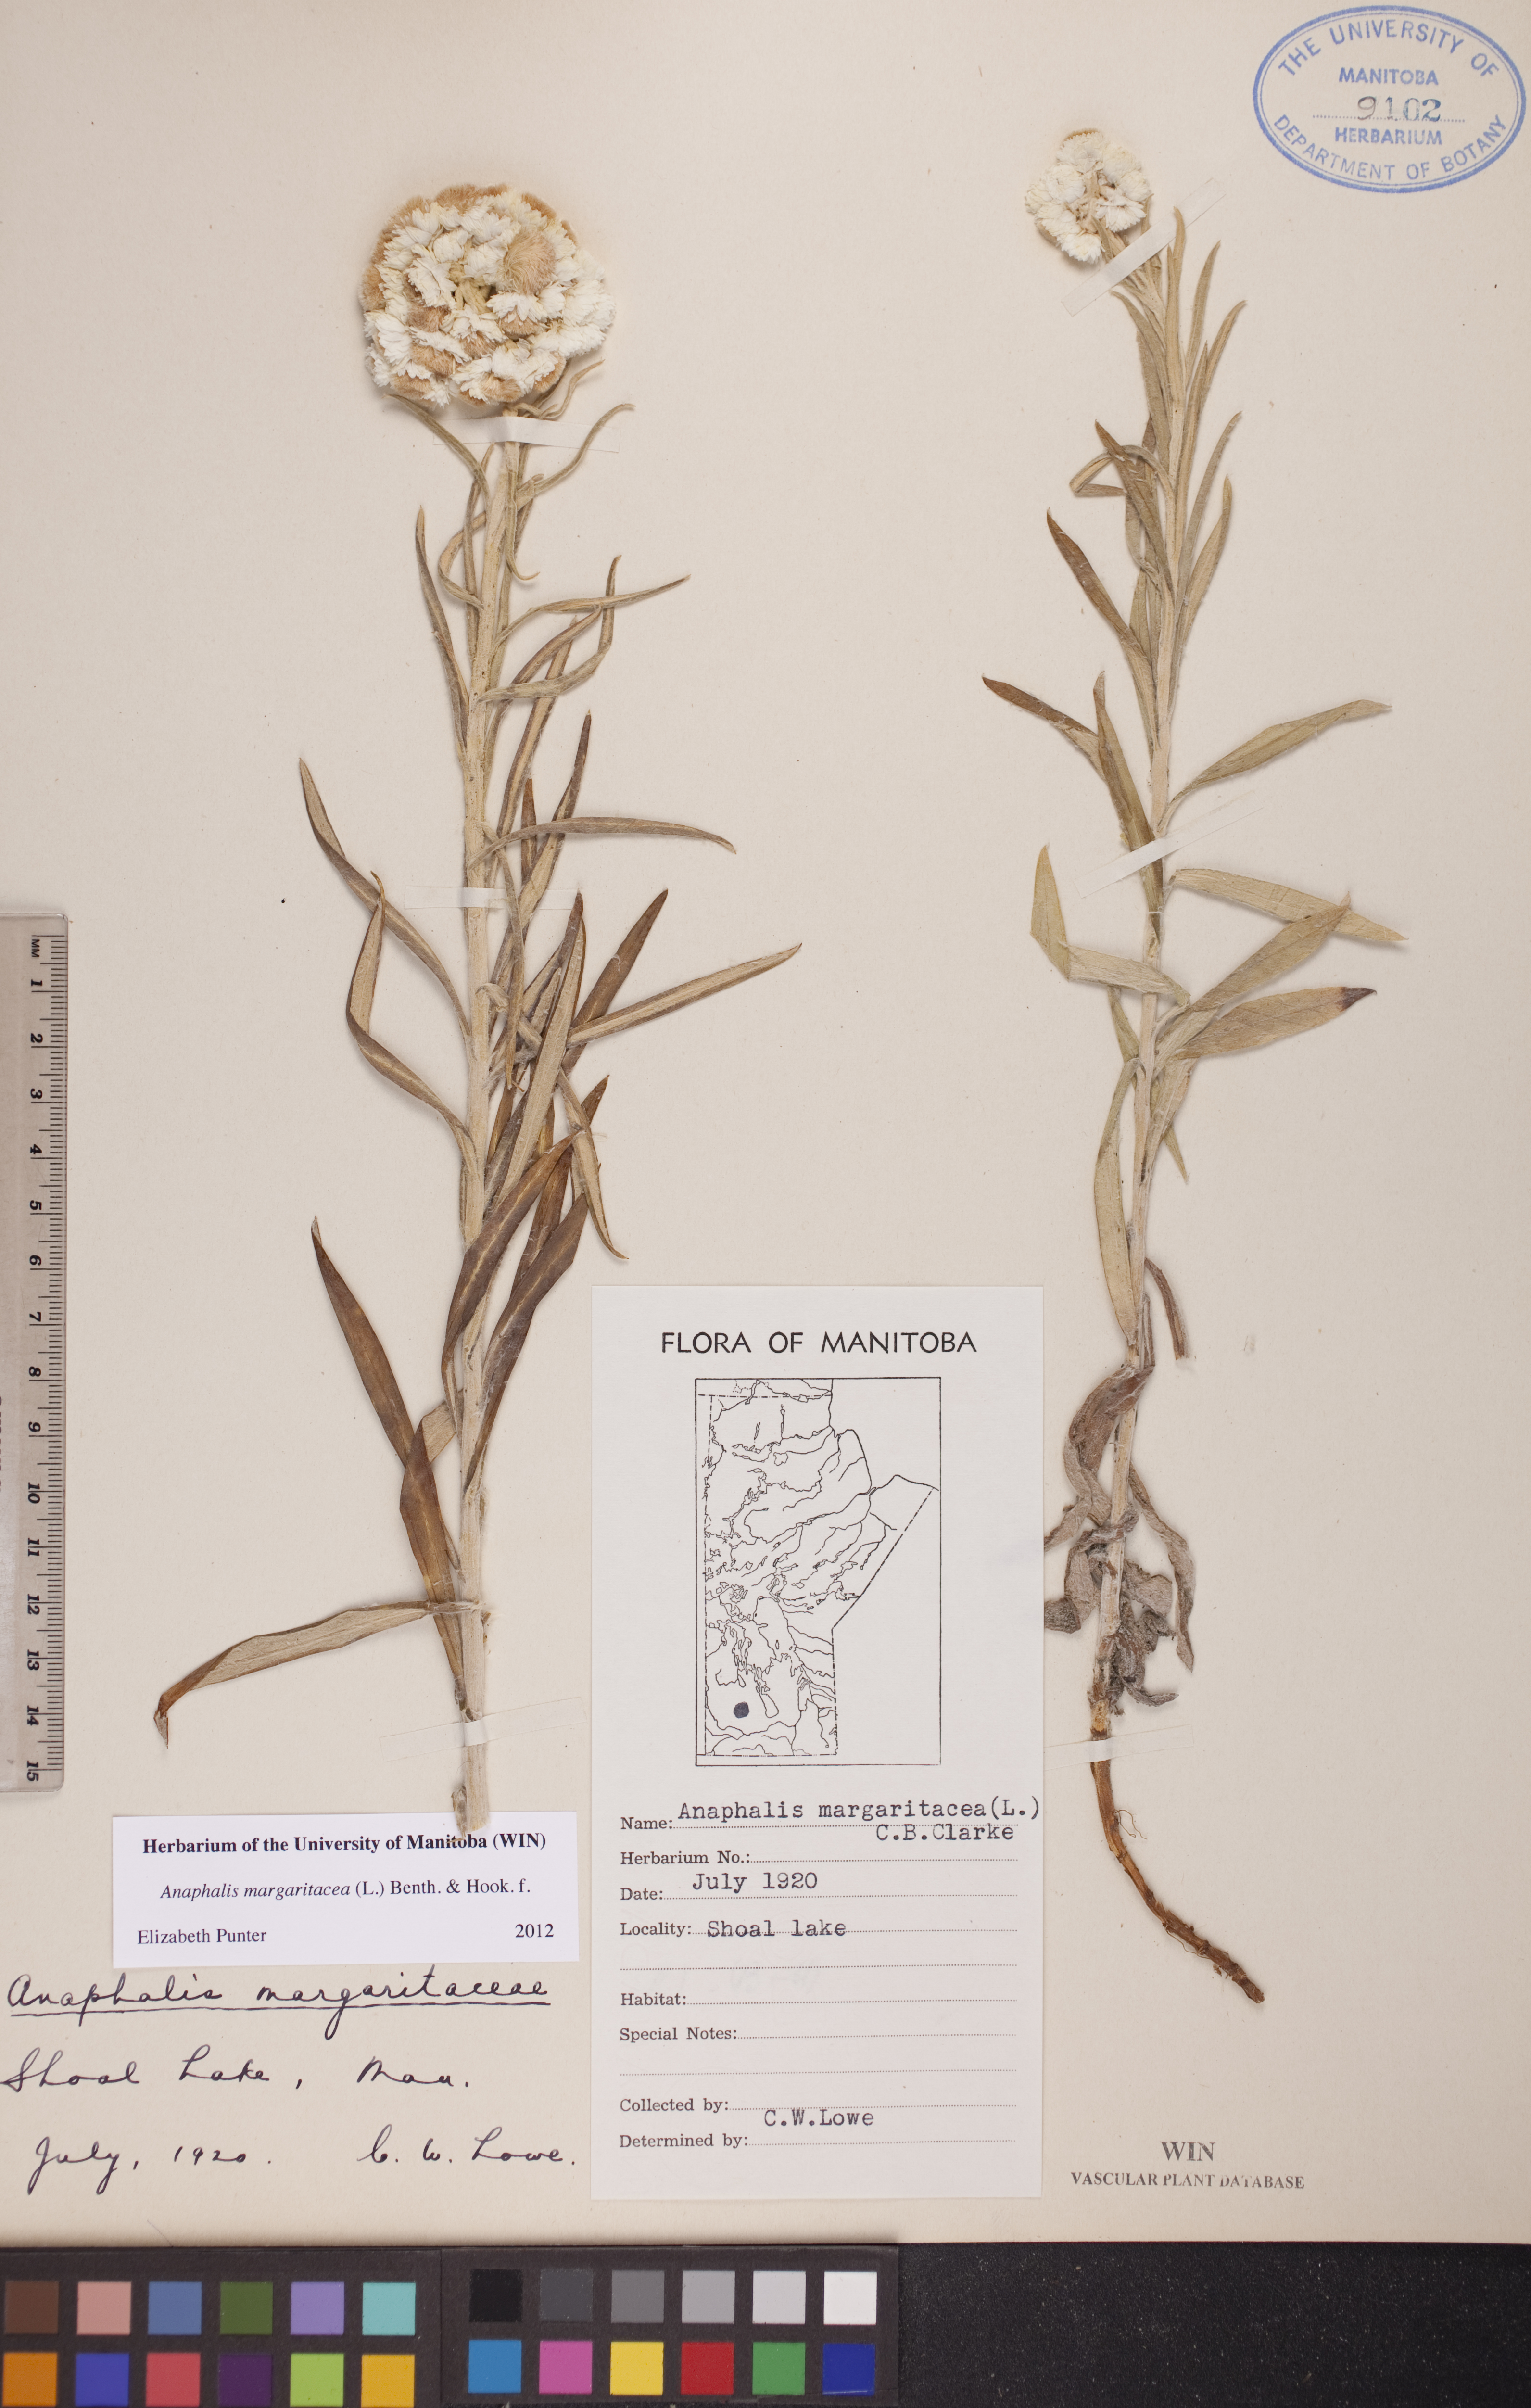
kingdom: Plantae
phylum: Tracheophyta
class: Magnoliopsida
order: Asterales
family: Asteraceae
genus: Anaphalis
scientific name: Anaphalis margaritacea
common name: Pearly everlasting
